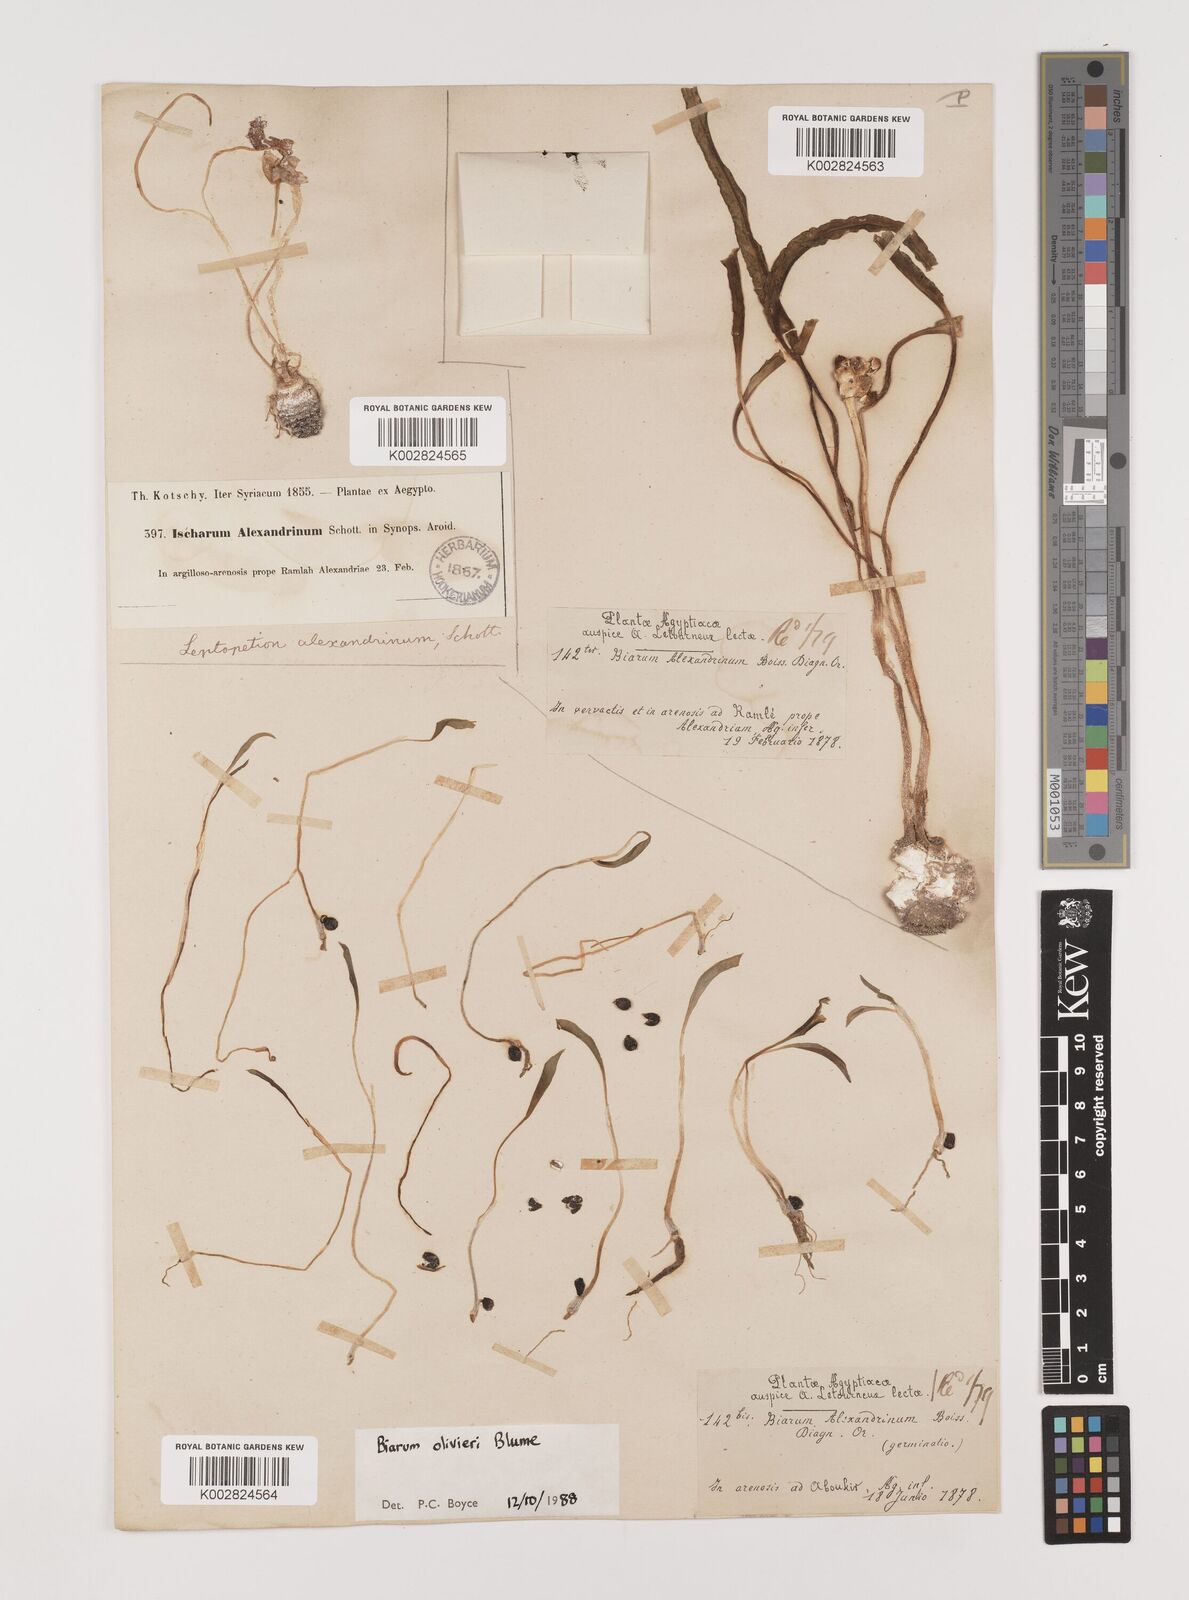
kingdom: Plantae
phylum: Tracheophyta
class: Liliopsida
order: Alismatales
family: Araceae
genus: Biarum
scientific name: Biarum olivieri
